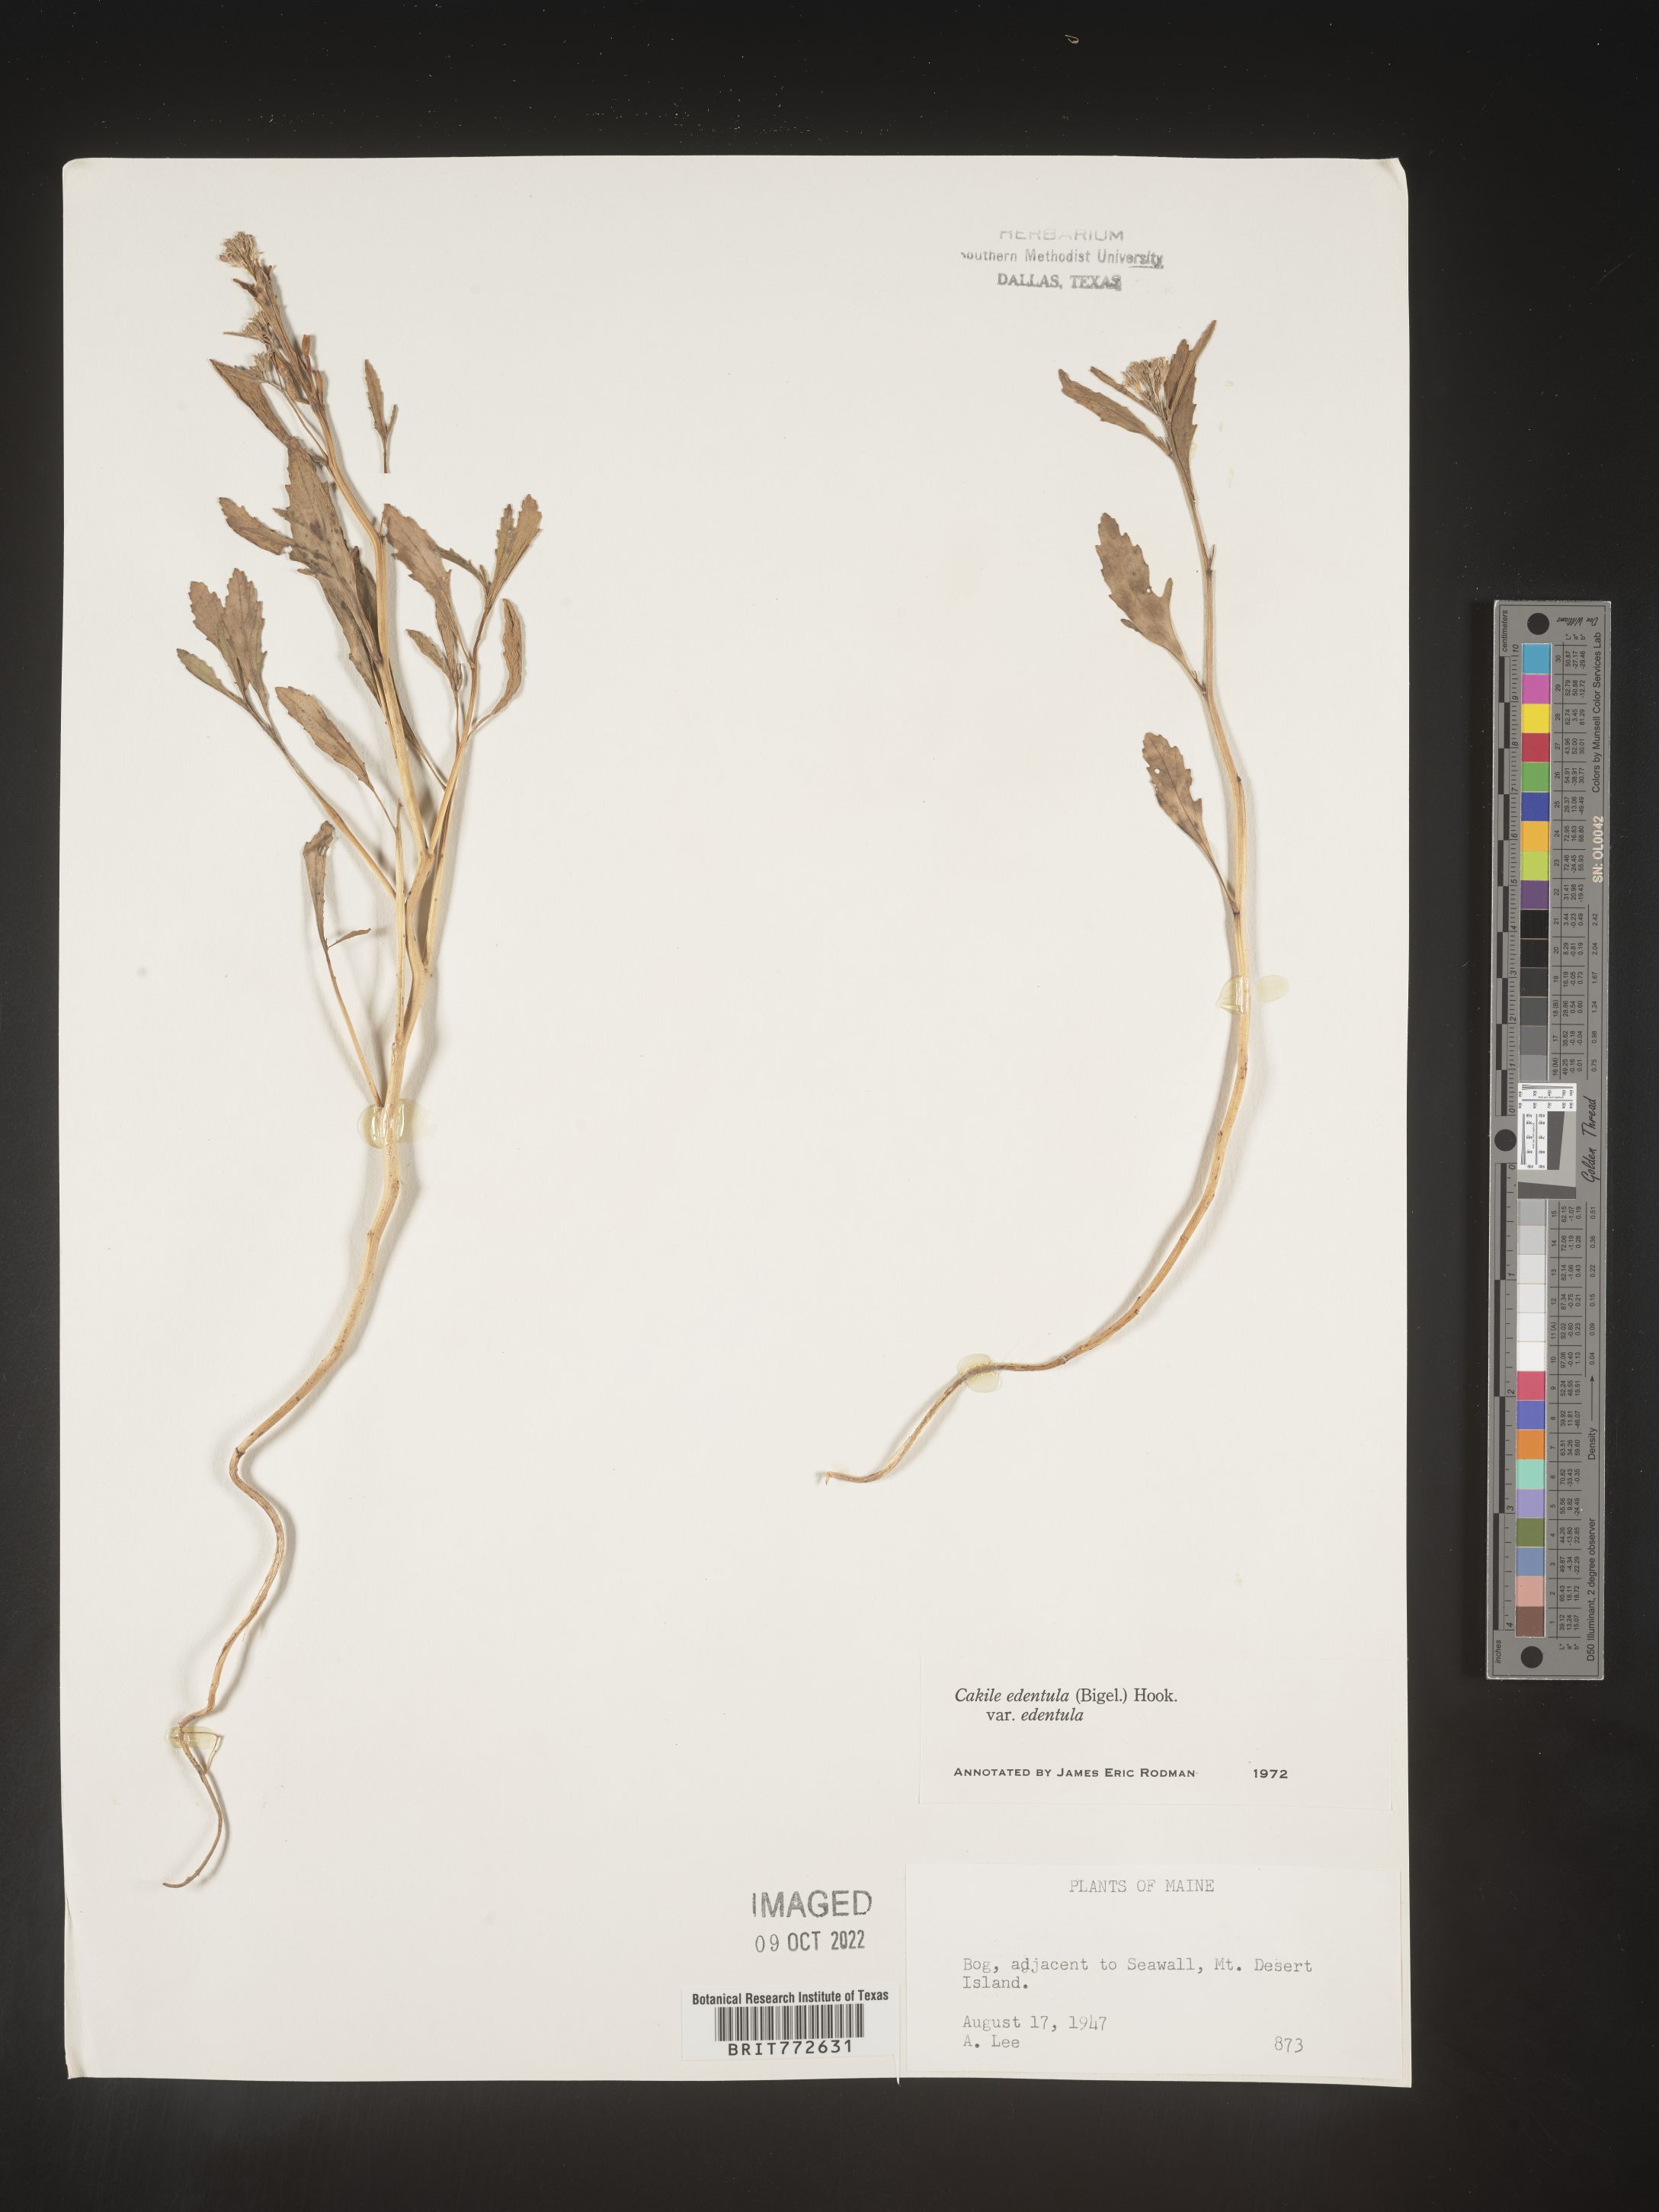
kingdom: Plantae
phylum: Tracheophyta
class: Magnoliopsida
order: Brassicales
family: Brassicaceae
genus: Cakile
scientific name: Cakile edentula
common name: American sea rocket
